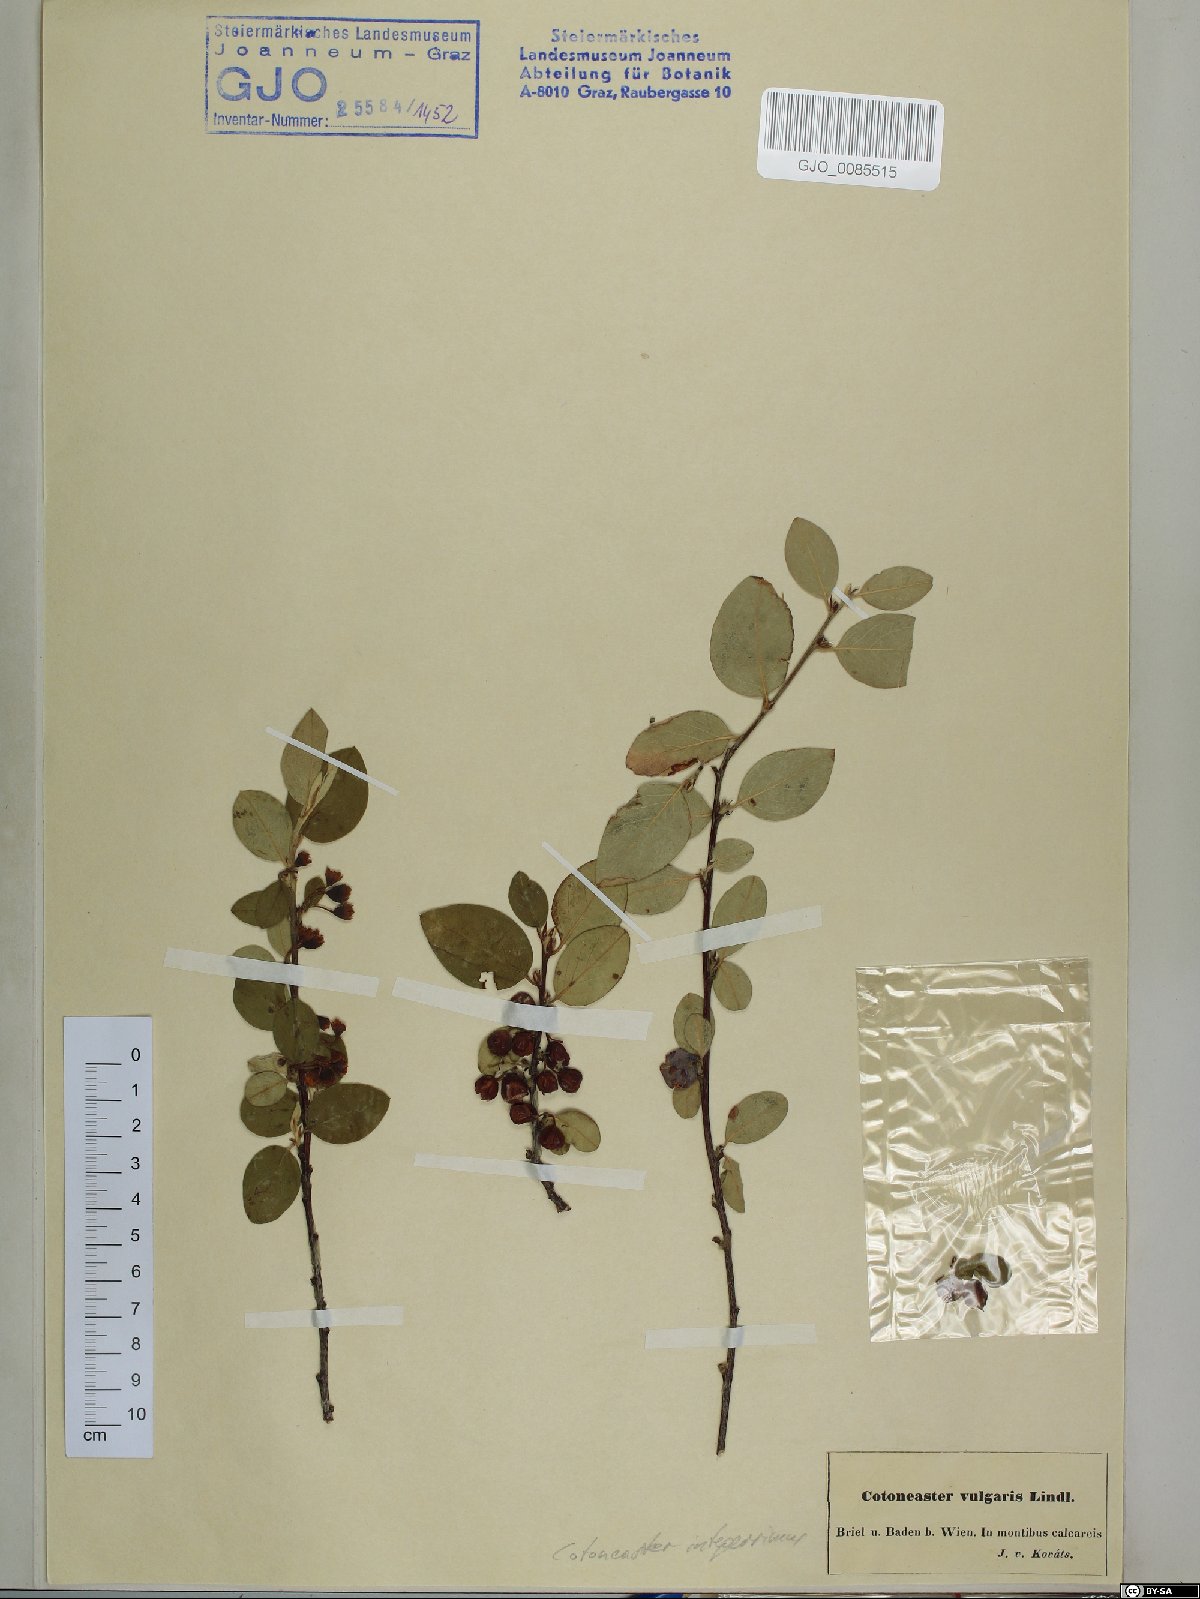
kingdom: Plantae
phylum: Tracheophyta
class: Magnoliopsida
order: Rosales
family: Rosaceae
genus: Cotoneaster
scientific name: Cotoneaster integerrimus
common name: Wild cotoneaster
